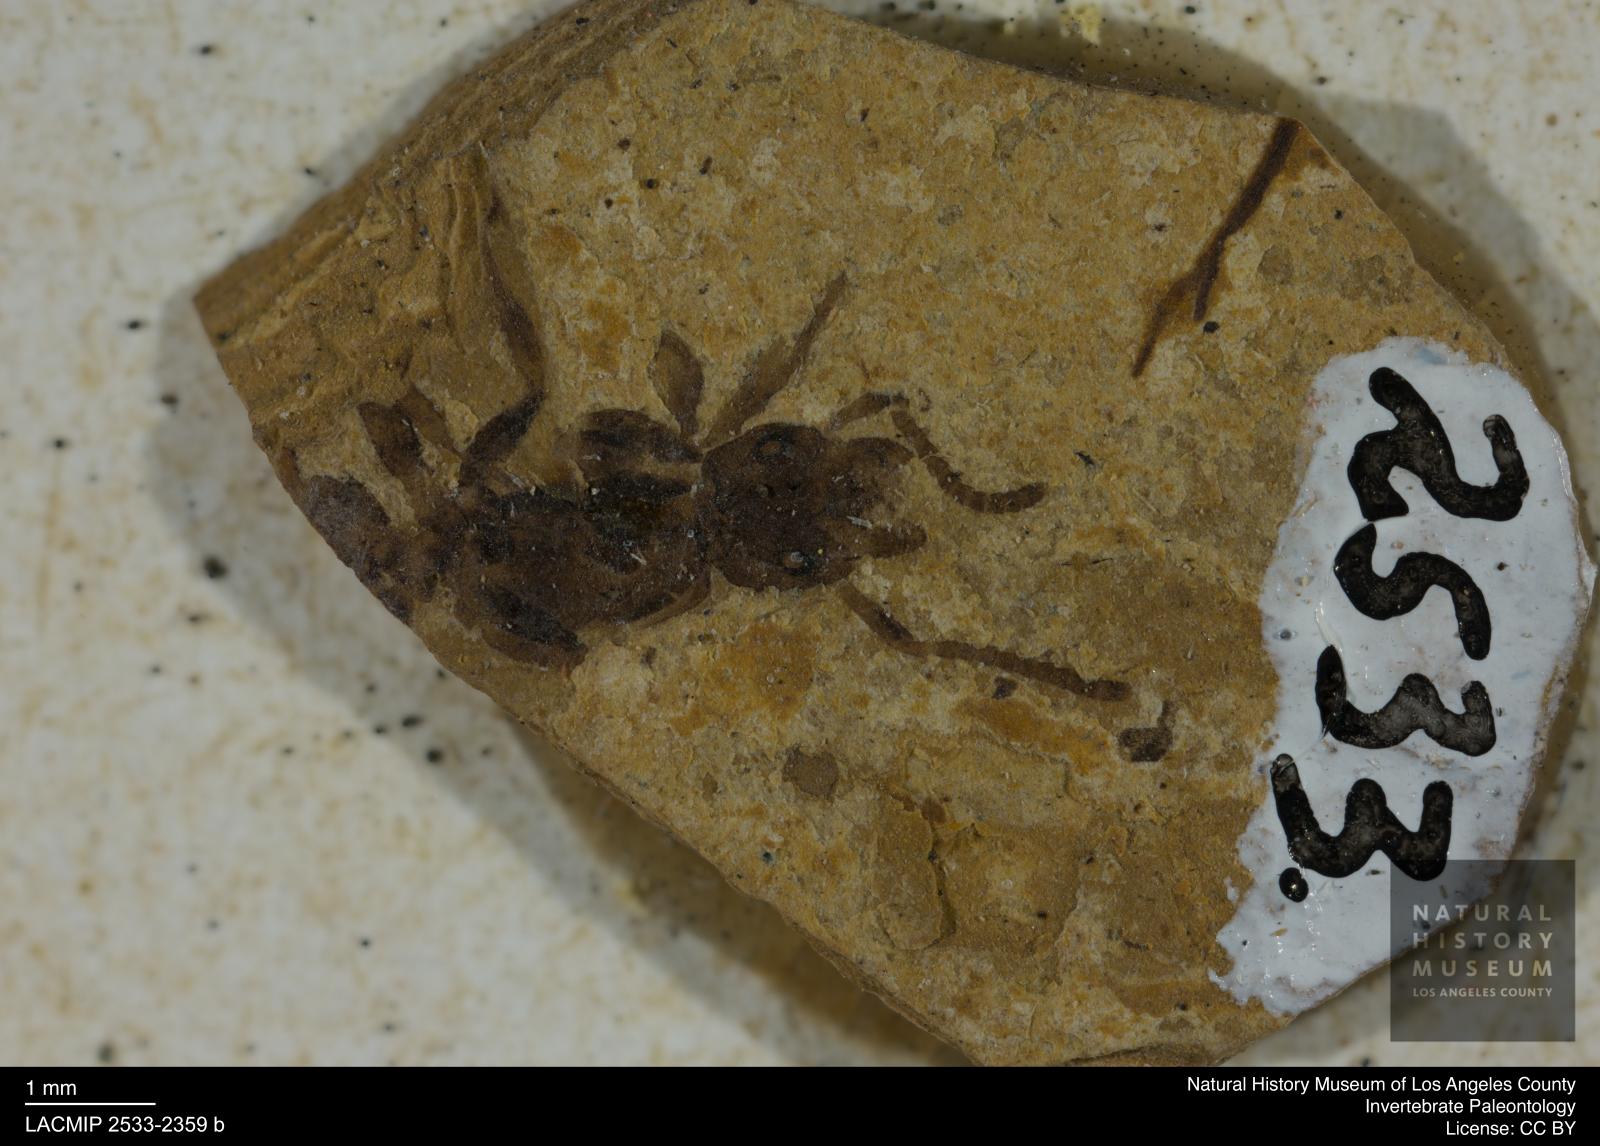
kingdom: Animalia
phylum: Arthropoda
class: Insecta
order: Hymenoptera
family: Formicidae
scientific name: Formicidae
